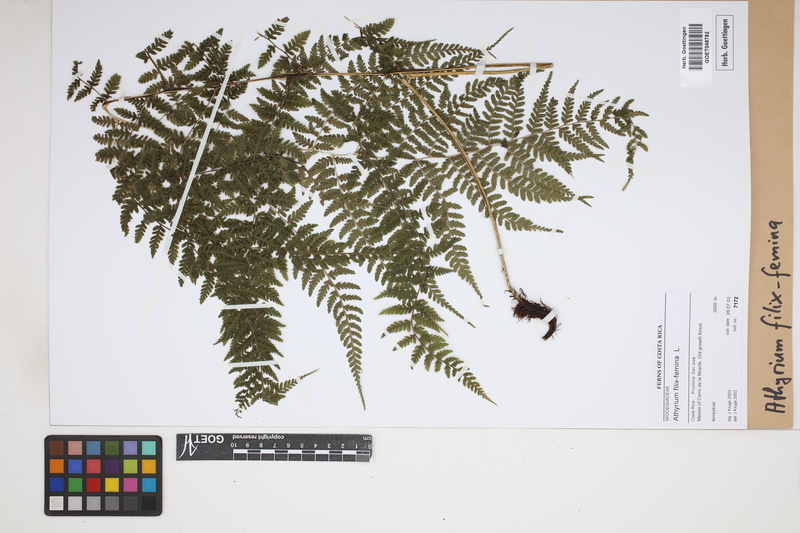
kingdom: Plantae
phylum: Tracheophyta
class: Polypodiopsida
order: Polypodiales
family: Athyriaceae
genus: Athyrium
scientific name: Athyrium filix-femina
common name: Lady fern
